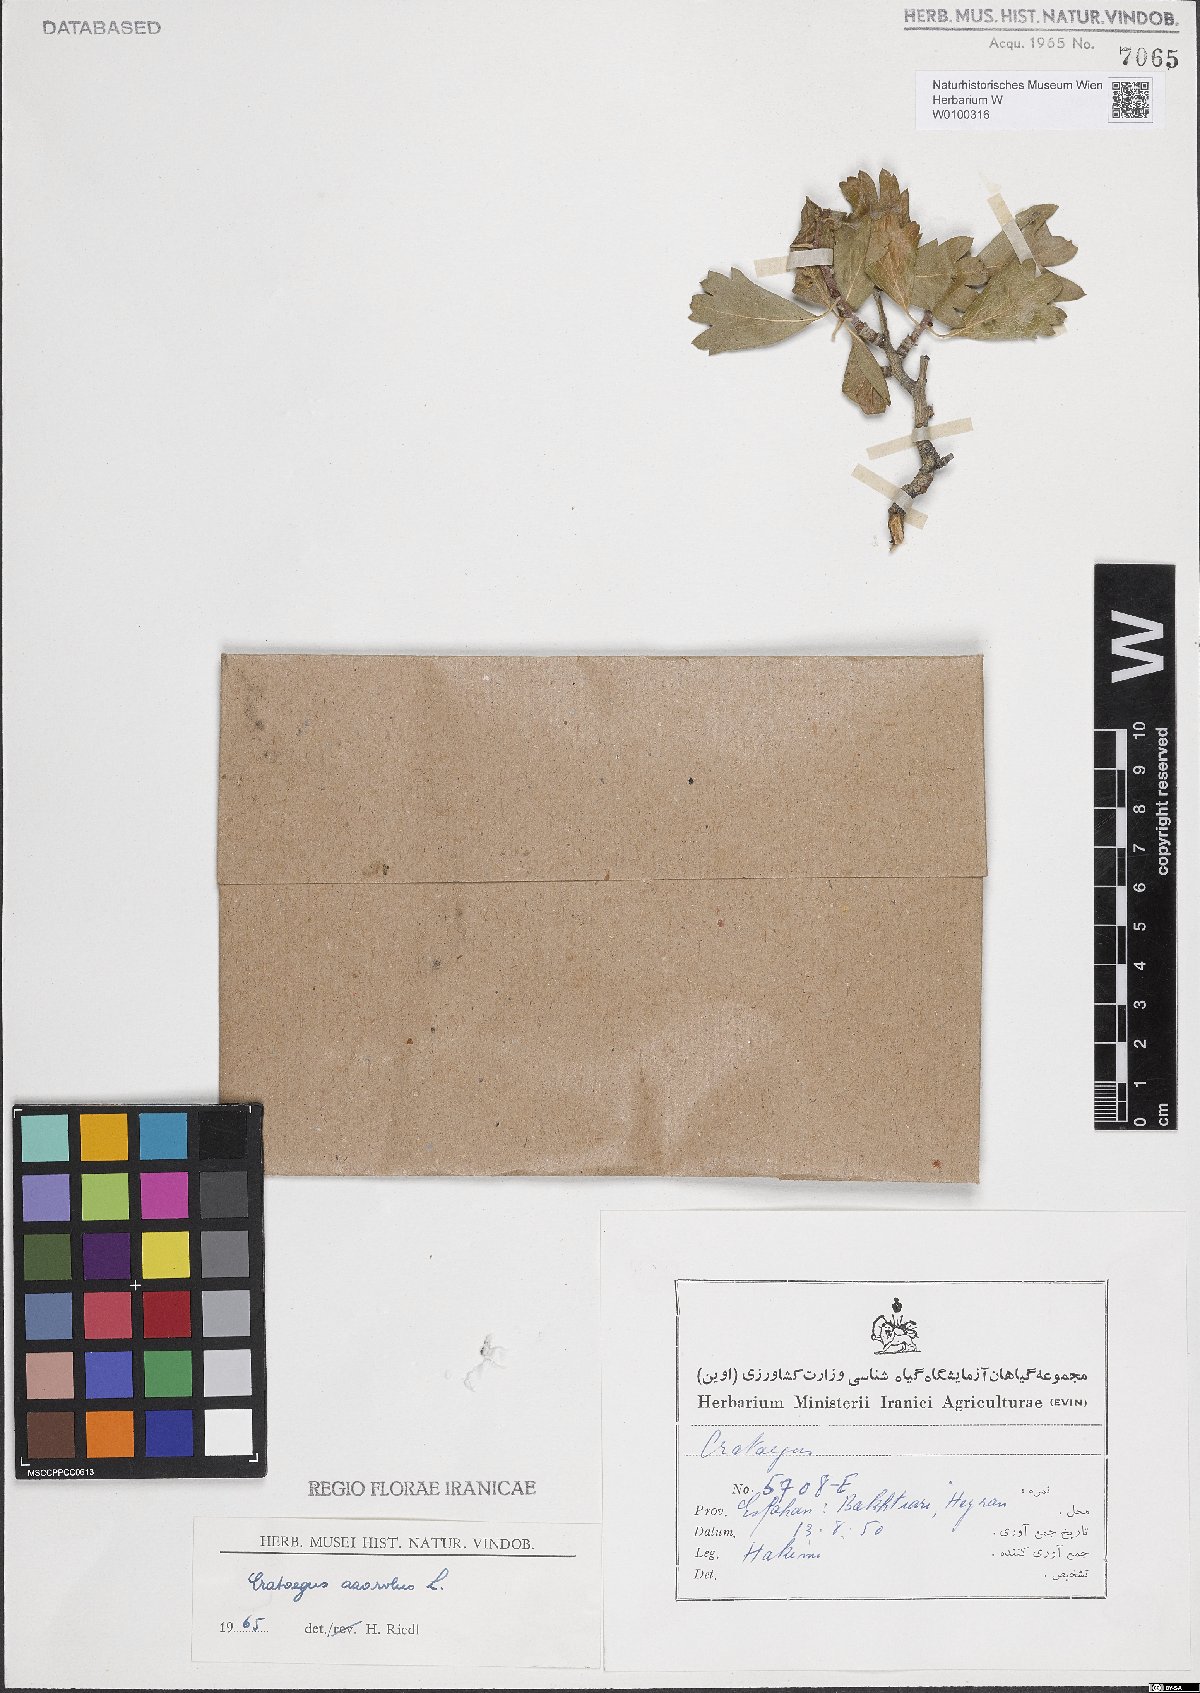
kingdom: Plantae
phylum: Tracheophyta
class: Magnoliopsida
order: Rosales
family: Rosaceae
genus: Crataegus
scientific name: Crataegus azarolus
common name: Azarole
